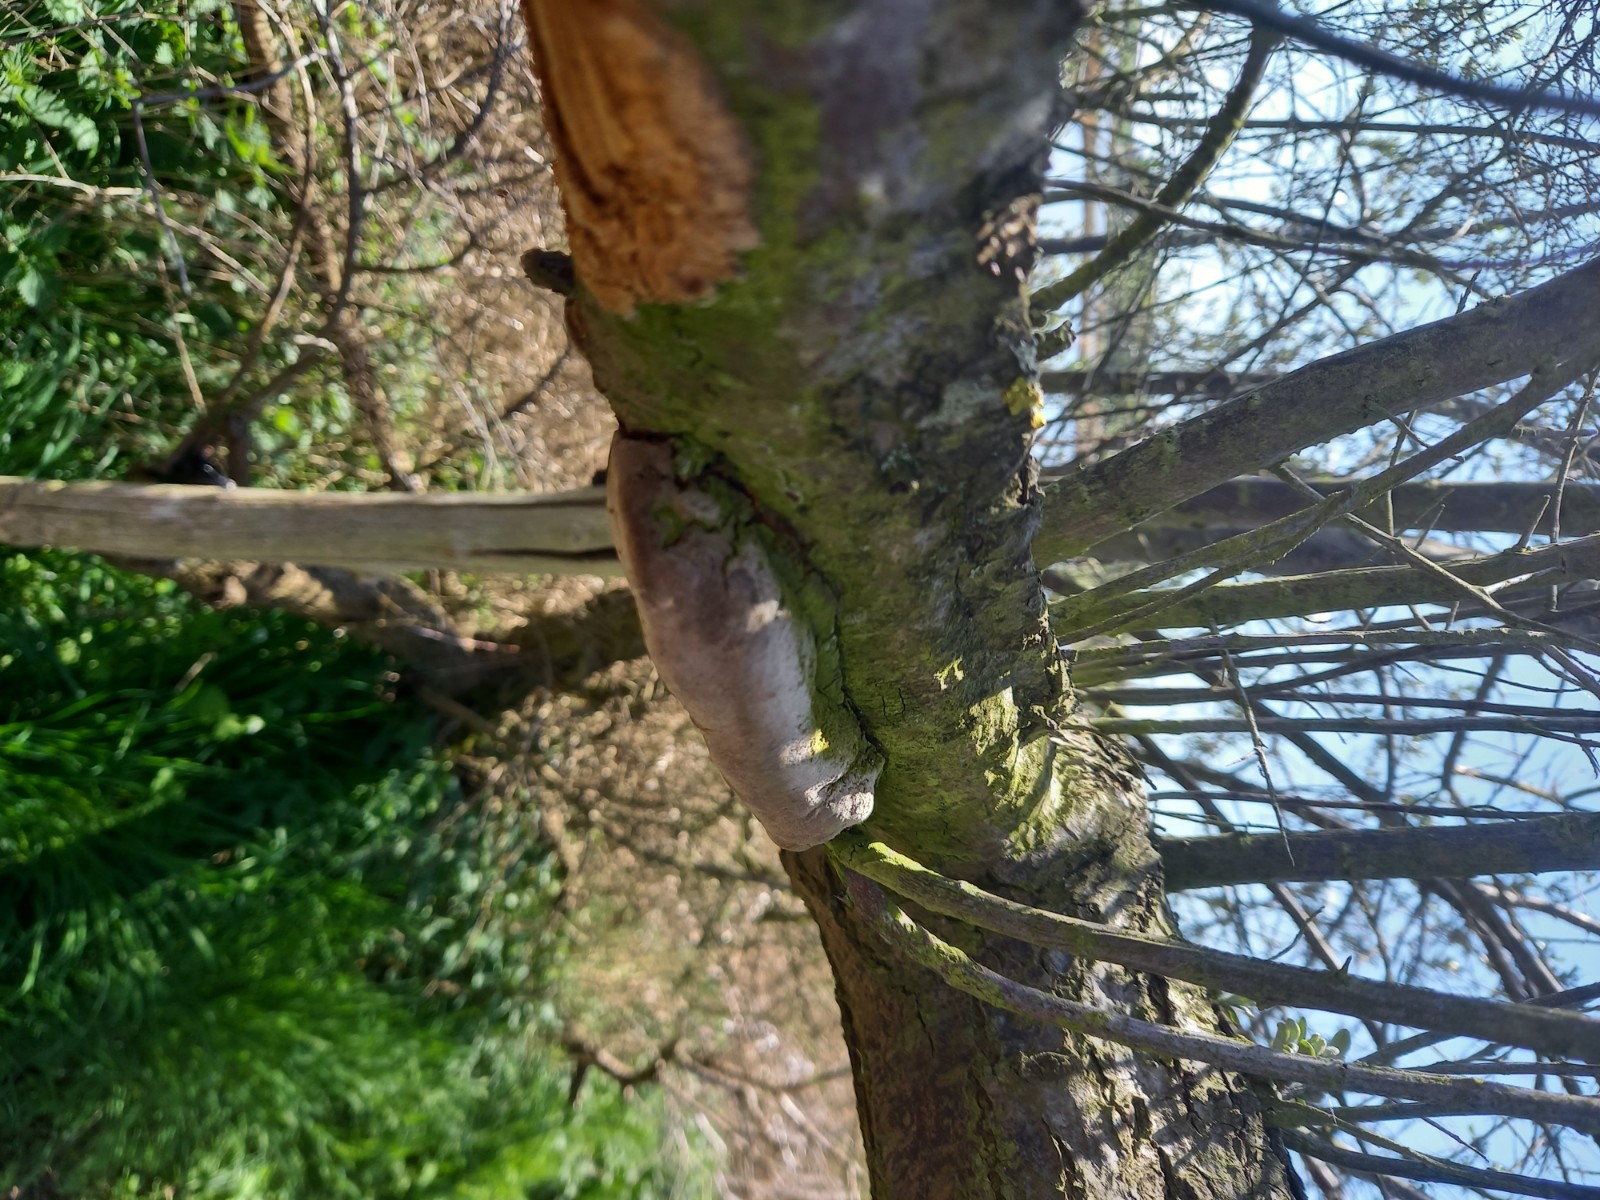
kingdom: Fungi
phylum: Basidiomycota
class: Agaricomycetes
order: Hymenochaetales
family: Hymenochaetaceae
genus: Fomitiporia
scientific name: Fomitiporia hippophaeicola
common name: havtorn-ildporesvamp
